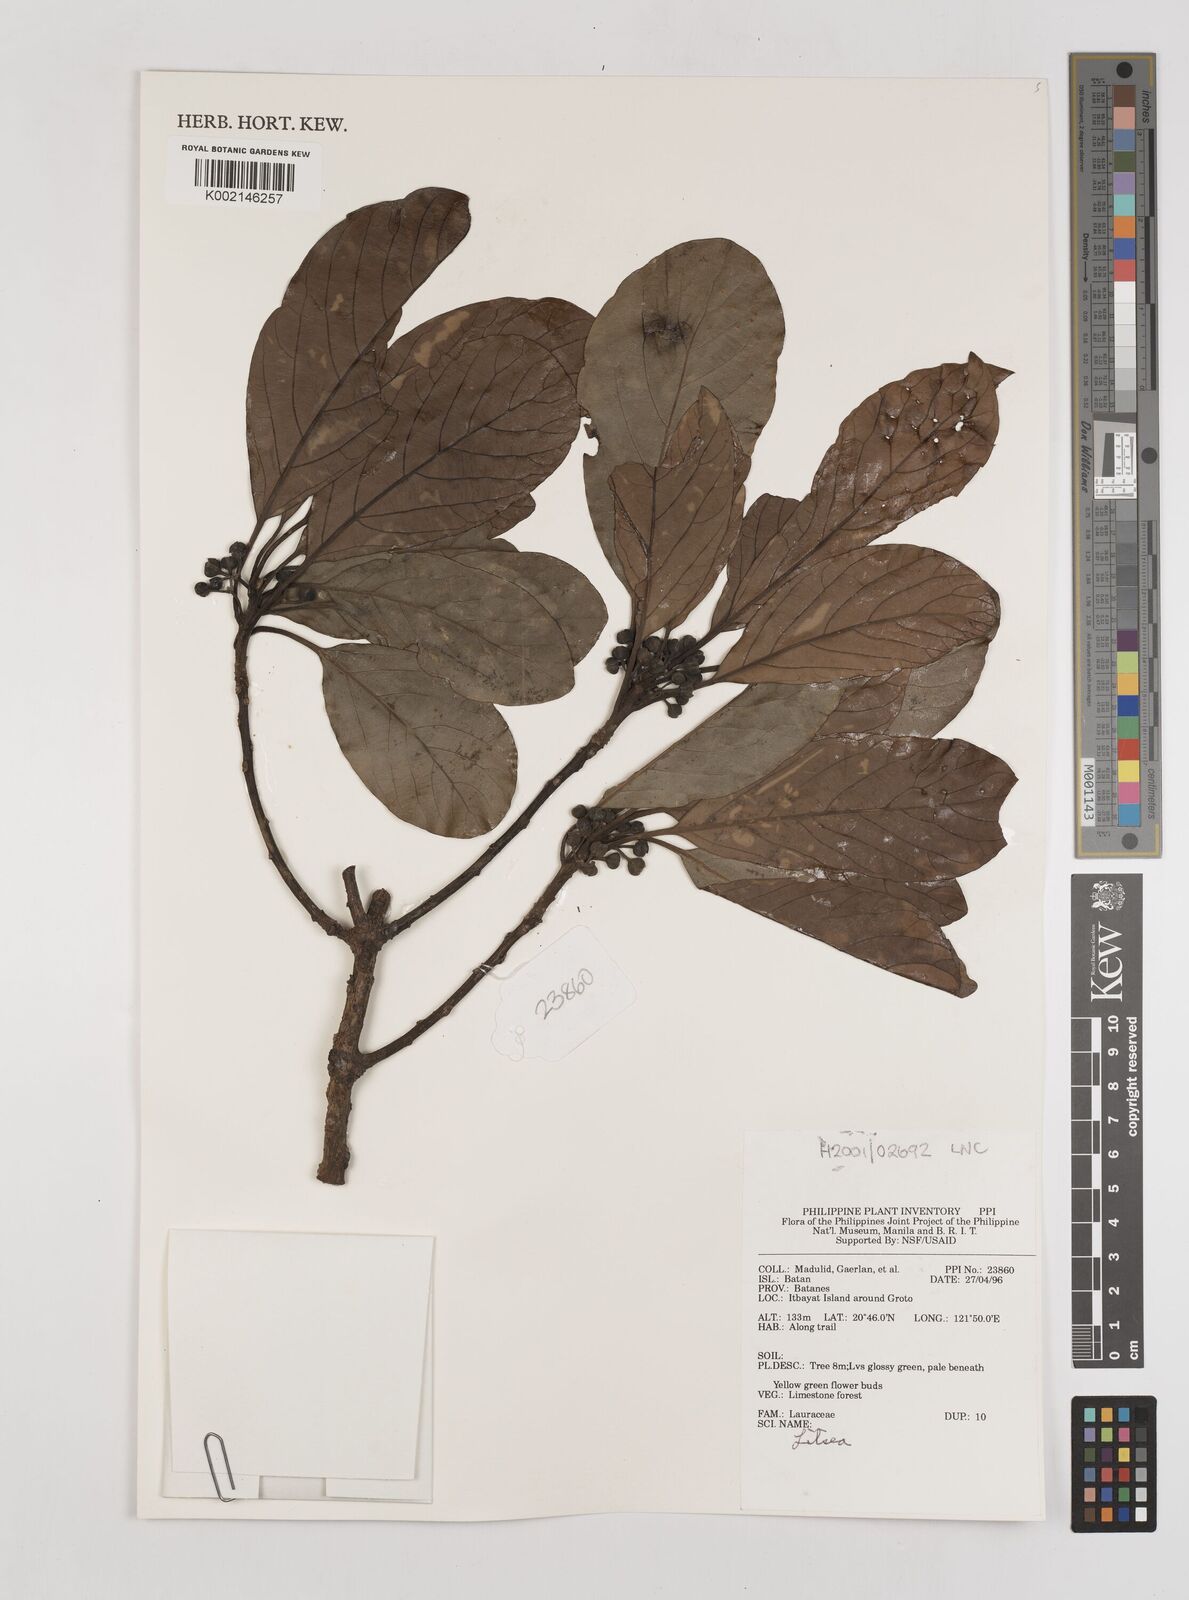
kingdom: Plantae
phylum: Tracheophyta
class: Magnoliopsida
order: Laurales
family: Lauraceae
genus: Litsea
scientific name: Litsea
